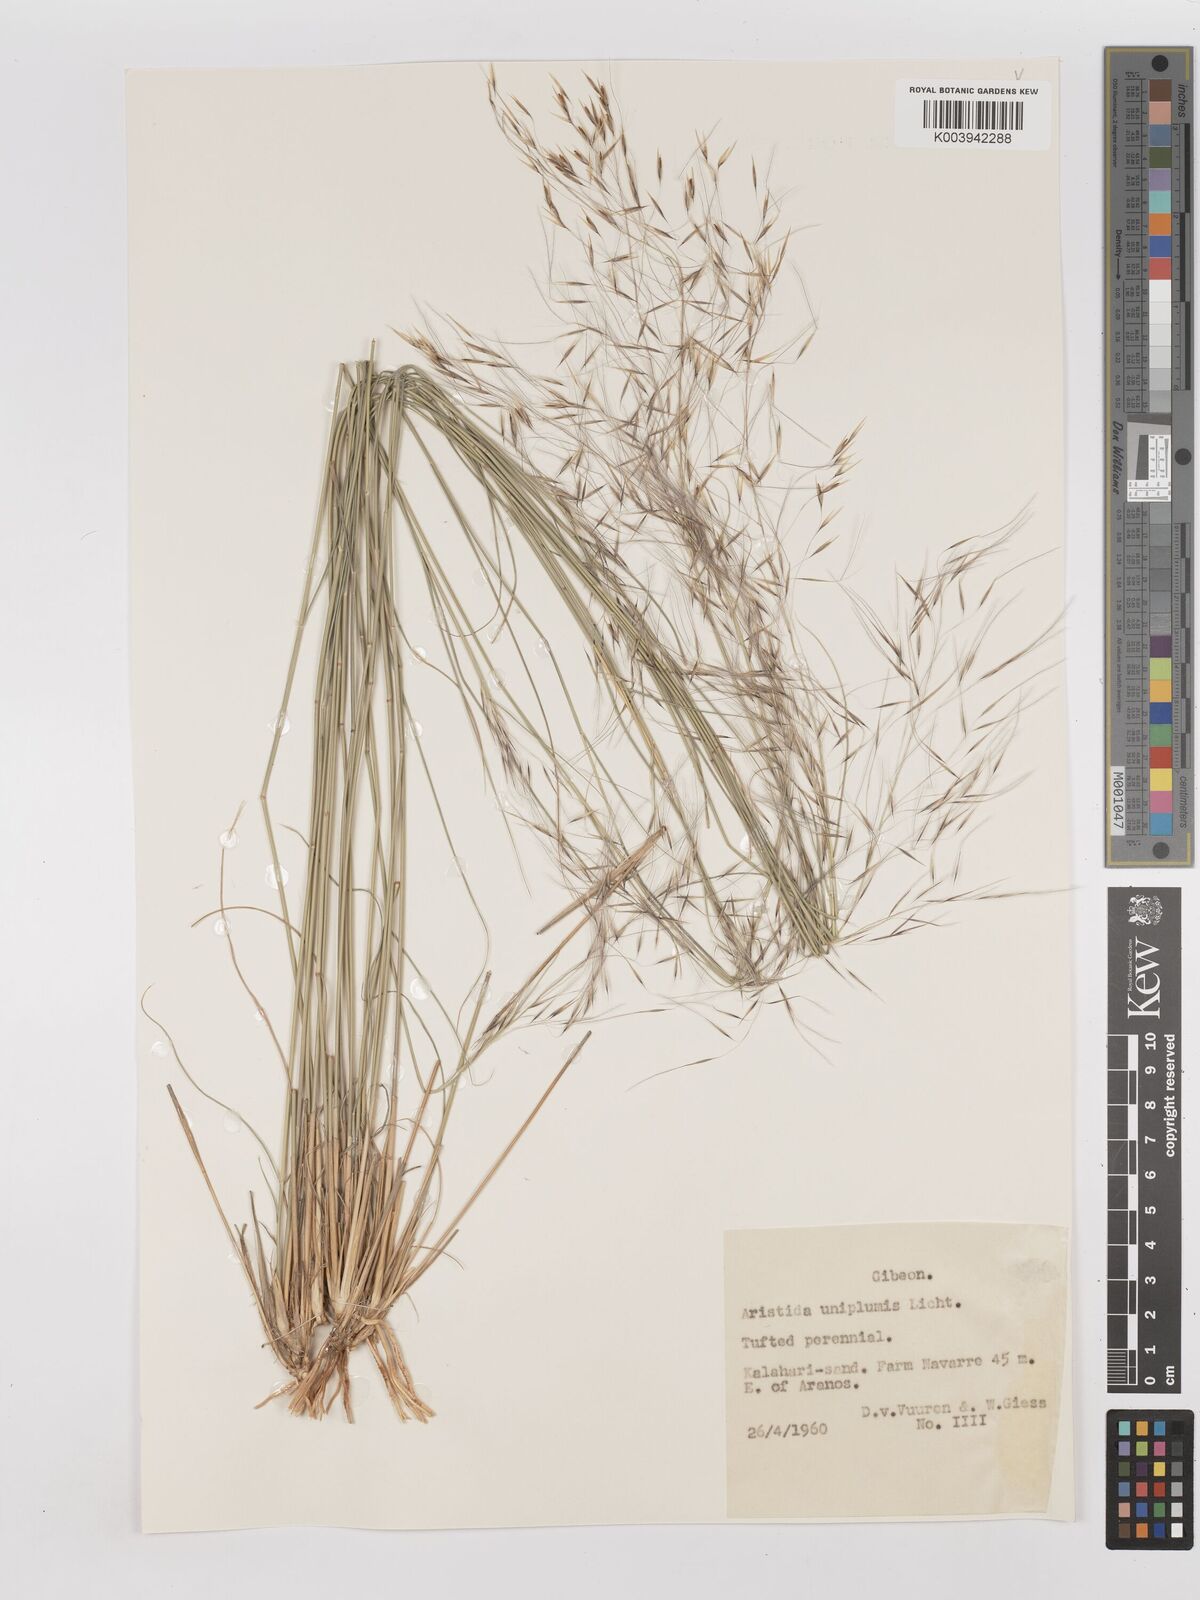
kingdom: Plantae
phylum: Tracheophyta
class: Liliopsida
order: Poales
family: Poaceae
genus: Stipagrostis
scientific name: Stipagrostis uniplumis
